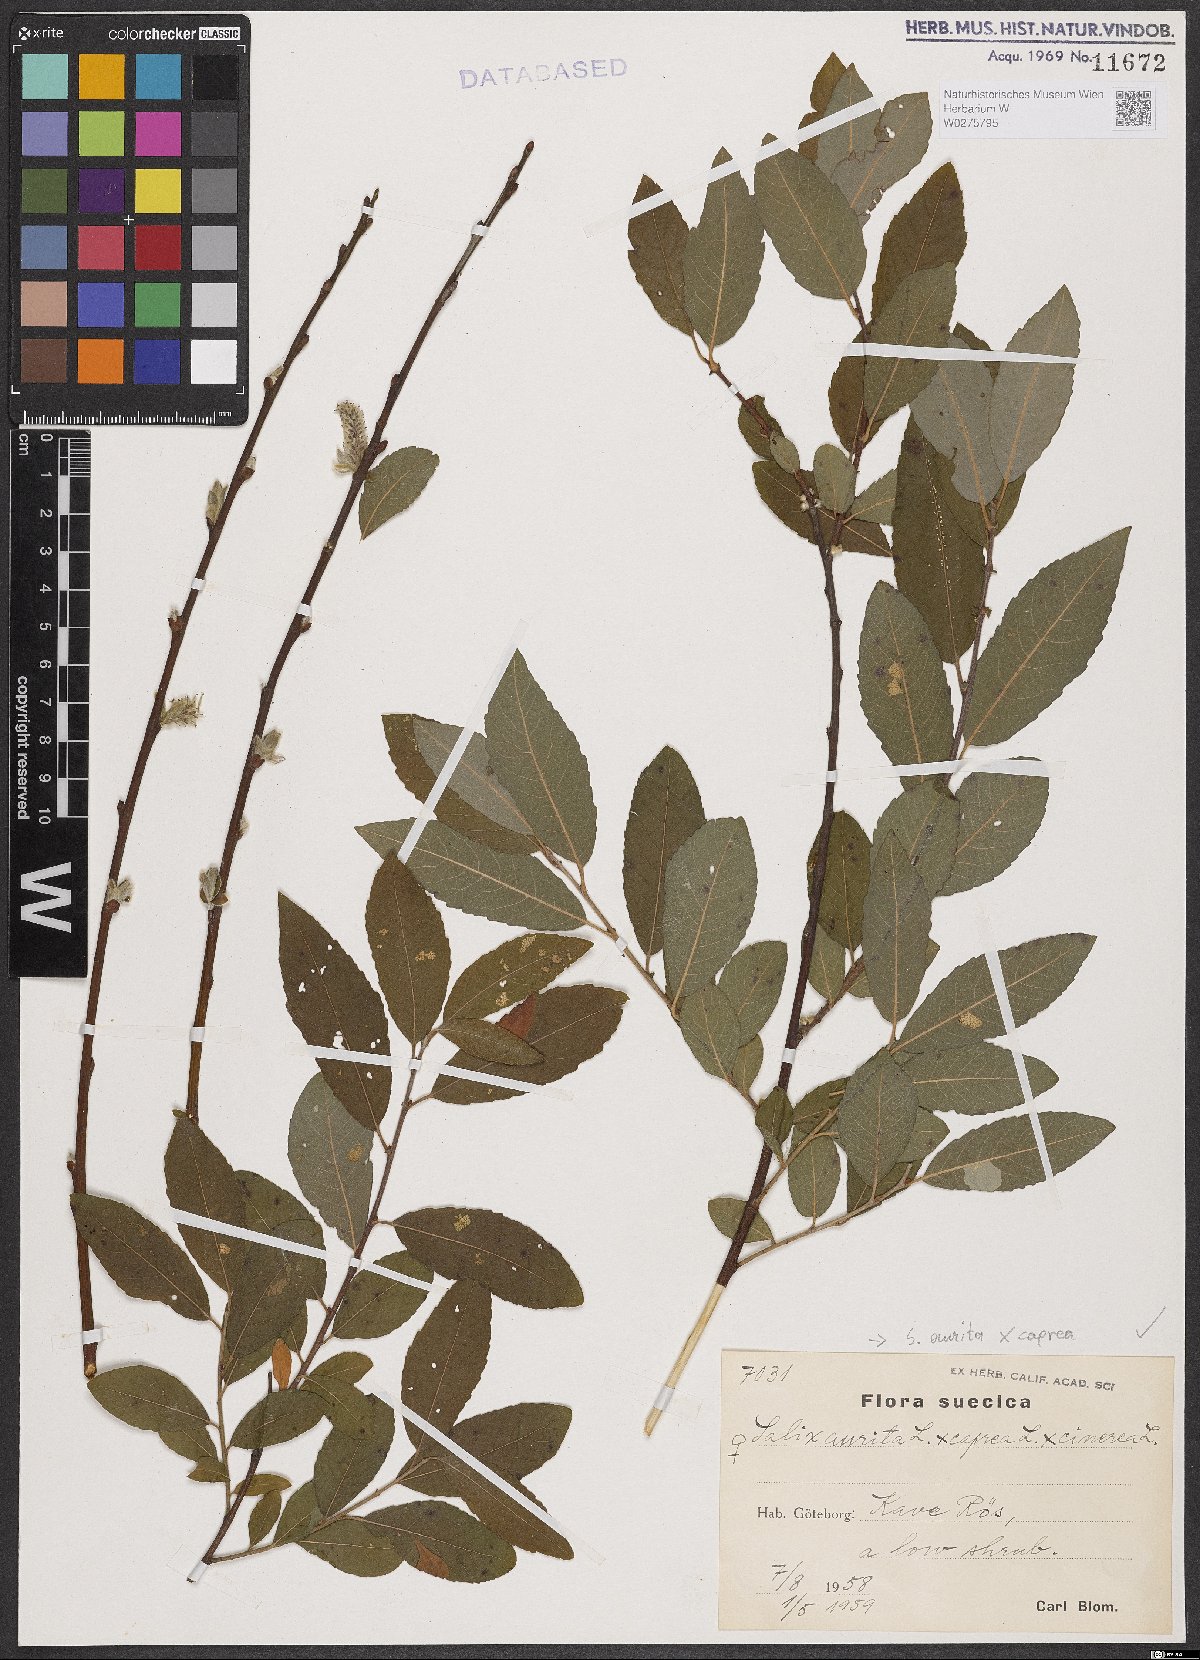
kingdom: Plantae
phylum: Tracheophyta
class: Magnoliopsida
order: Malpighiales
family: Salicaceae
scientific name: Salicaceae
